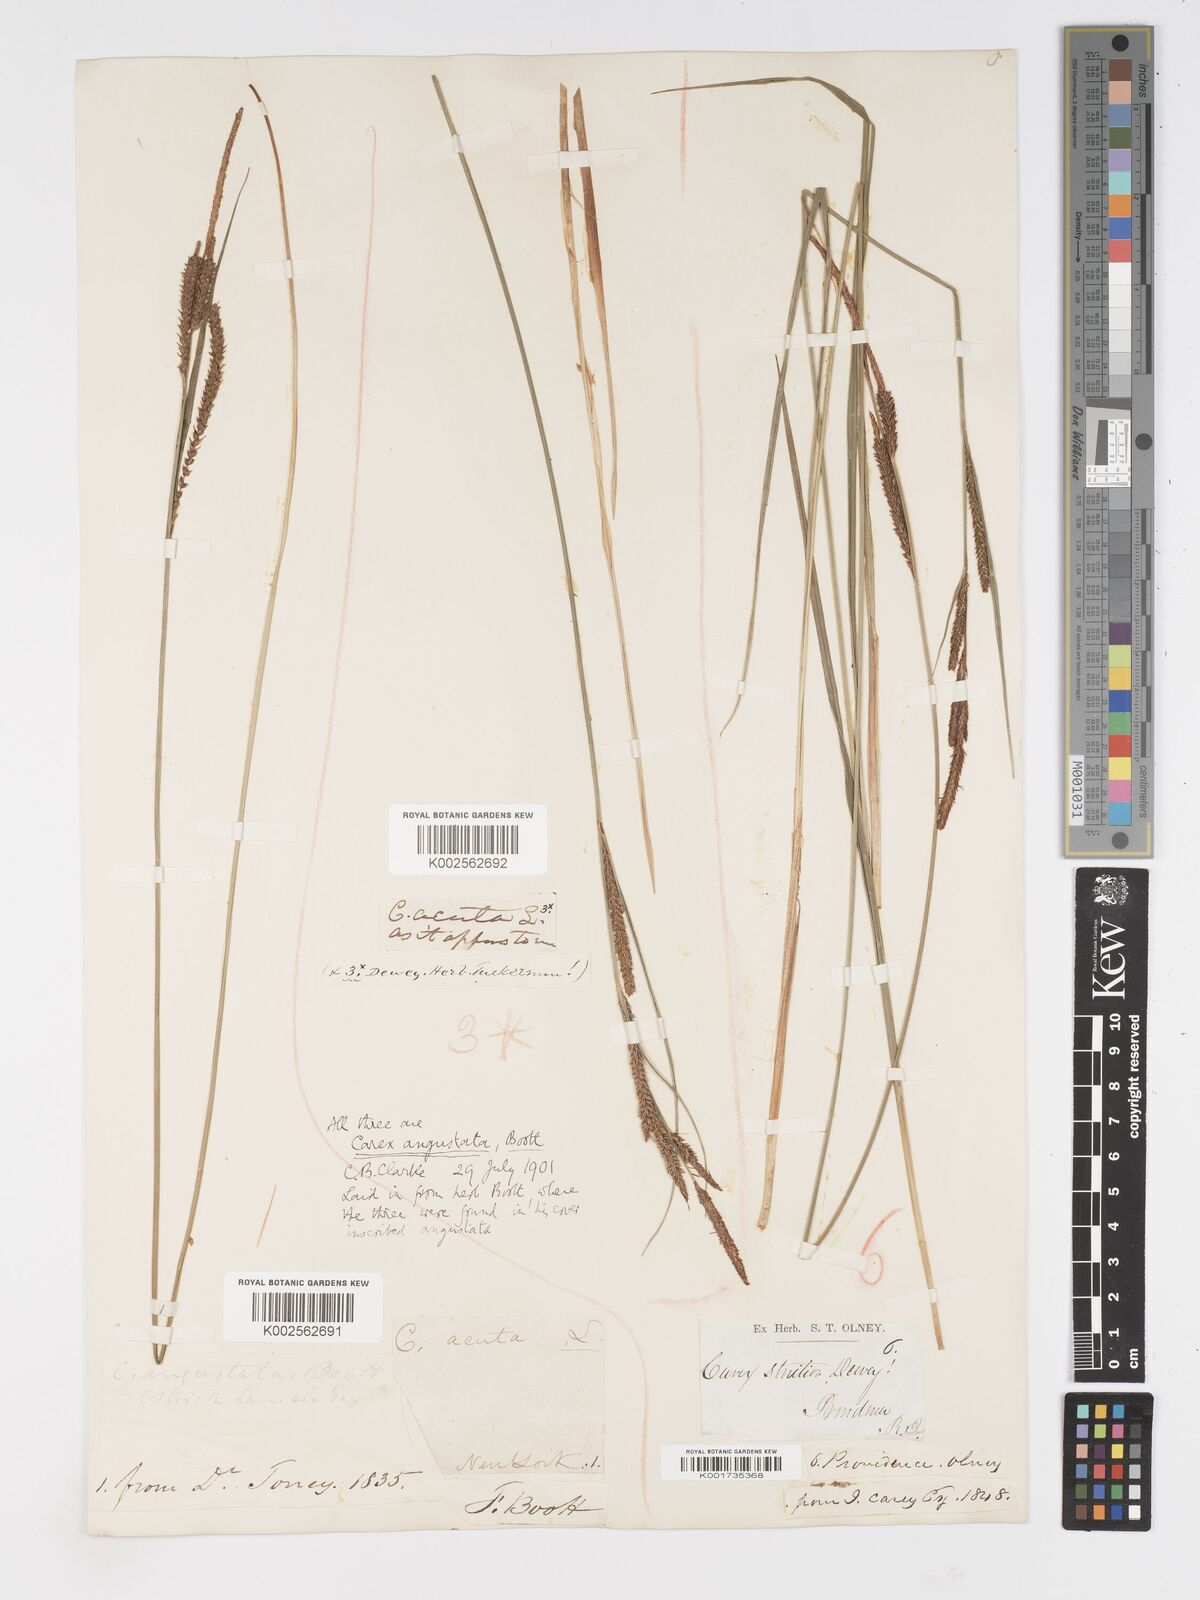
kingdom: Plantae
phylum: Tracheophyta
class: Liliopsida
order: Poales
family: Cyperaceae
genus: Carex
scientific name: Carex stricta
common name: Hummock sedge
